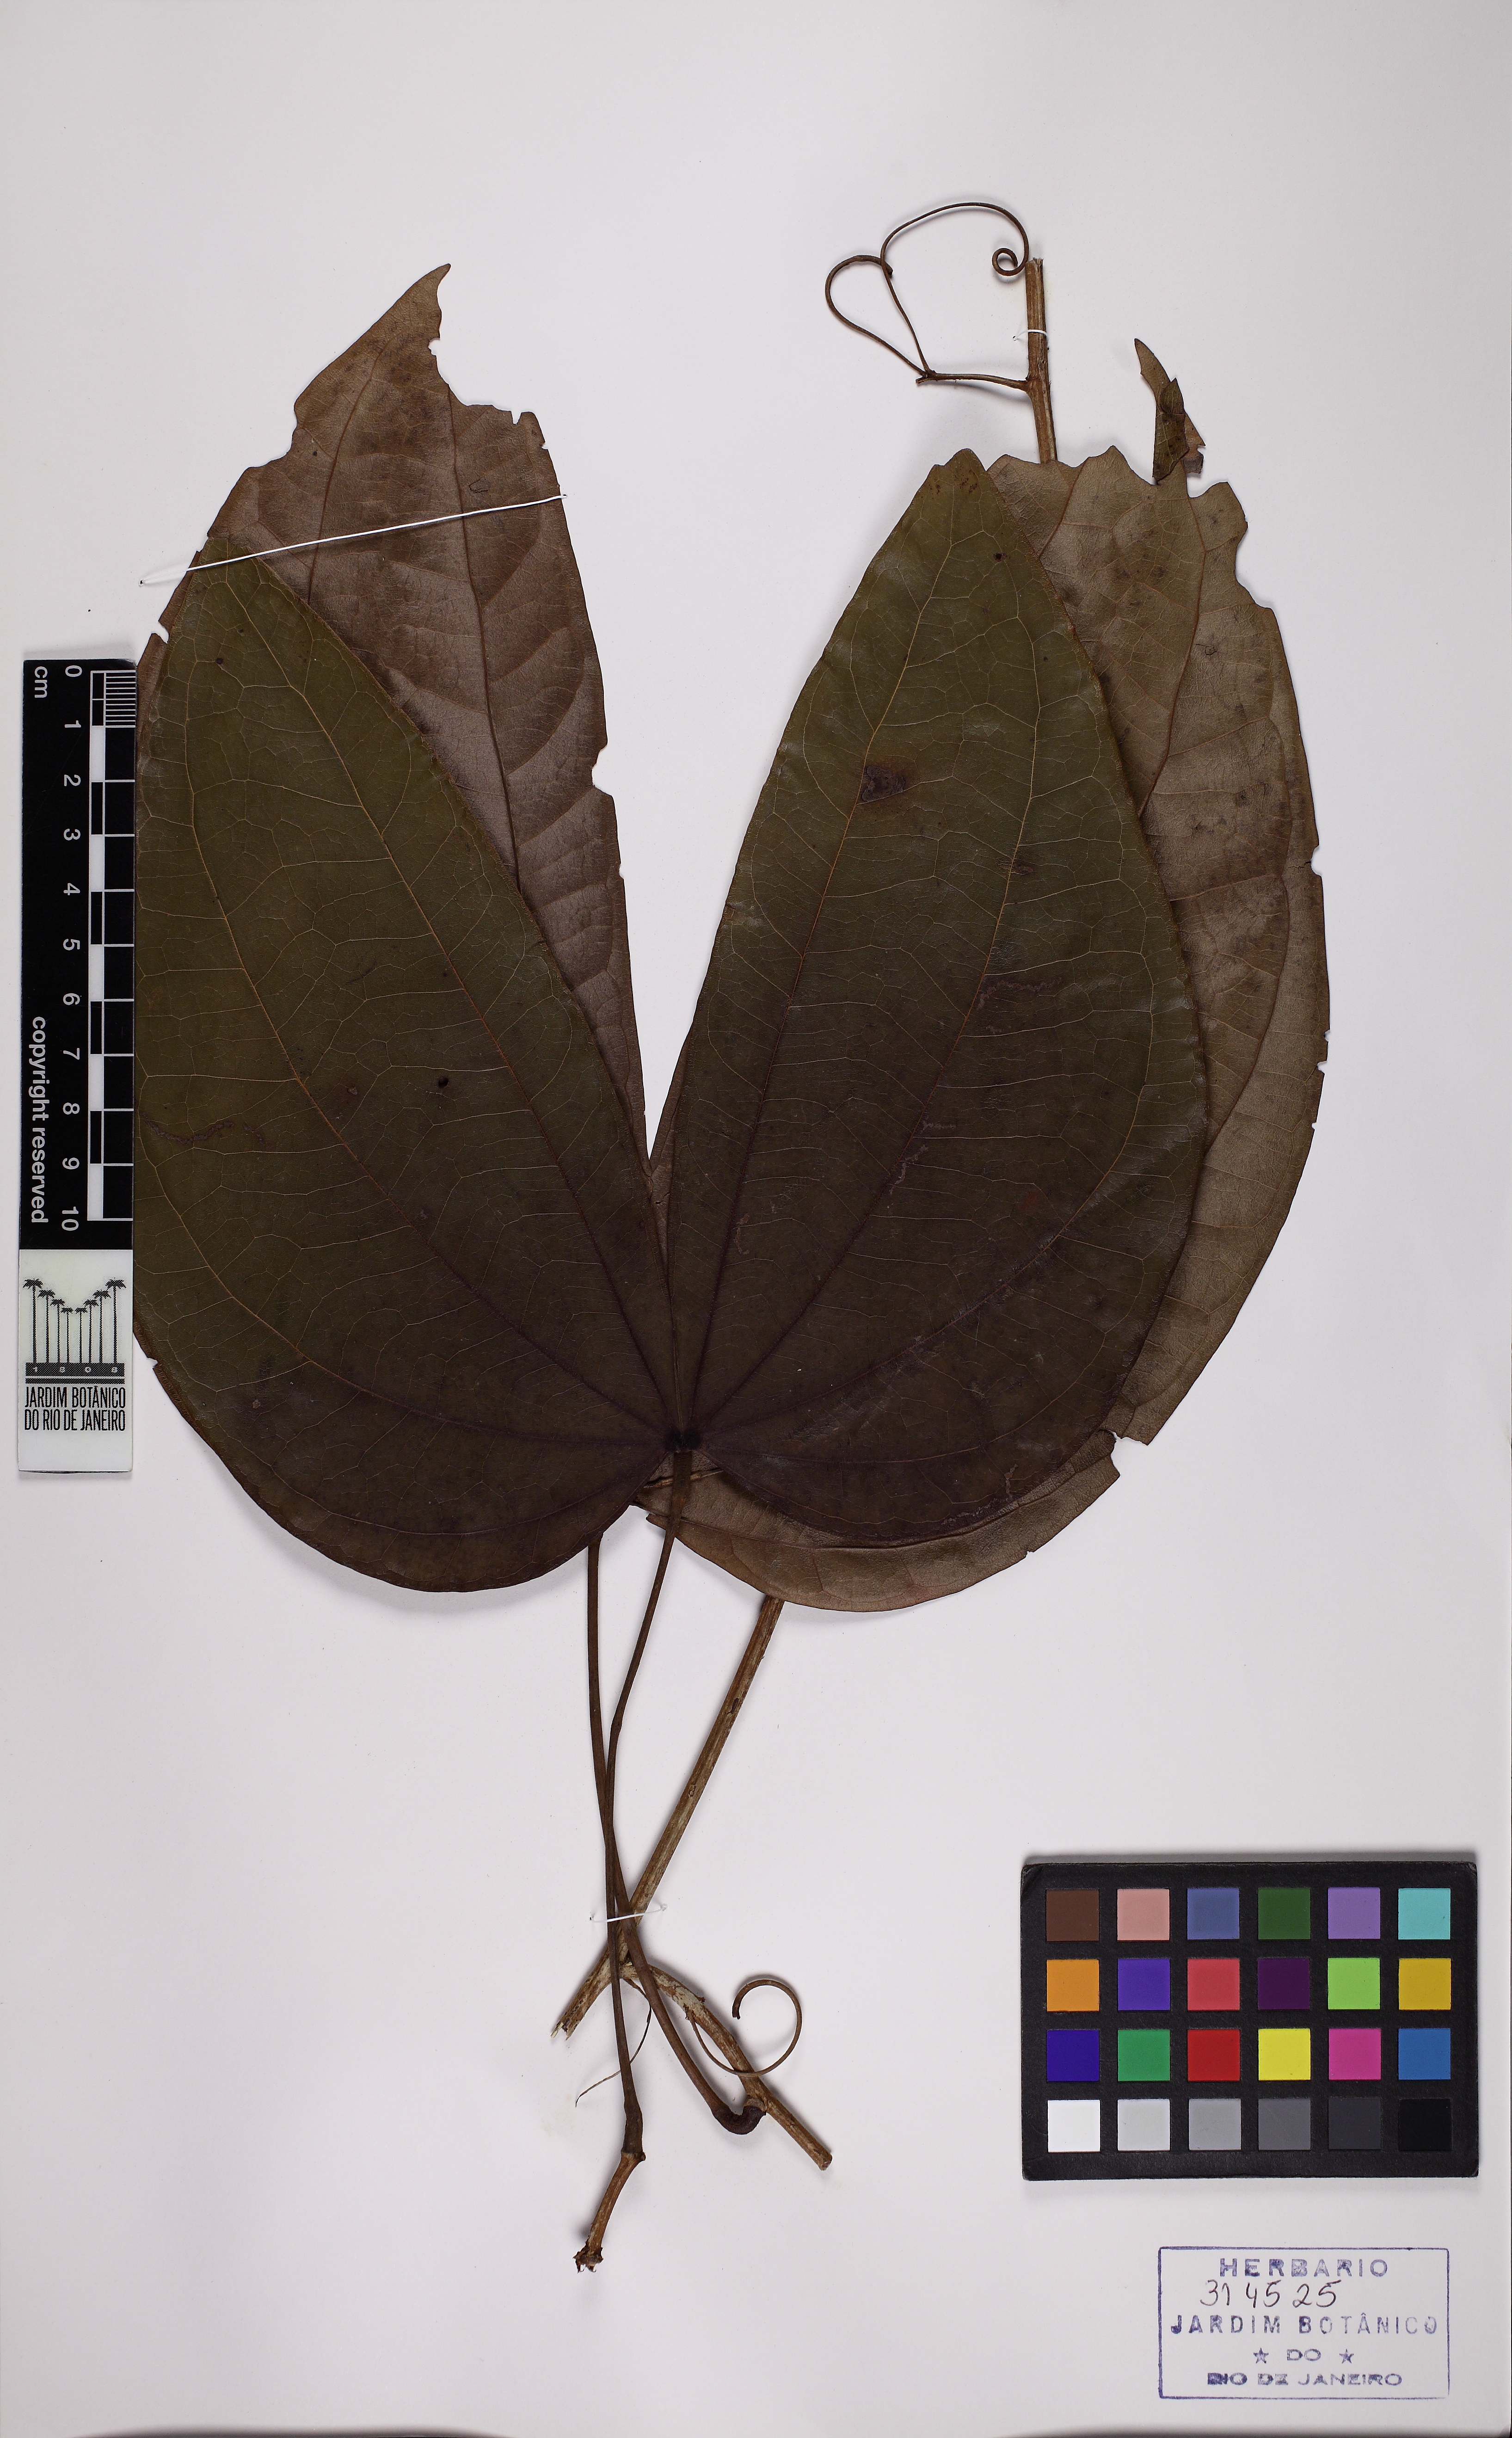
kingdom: Plantae
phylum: Tracheophyta
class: Magnoliopsida
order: Fabales
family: Fabaceae
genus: Schnella
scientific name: Schnella angulosa
